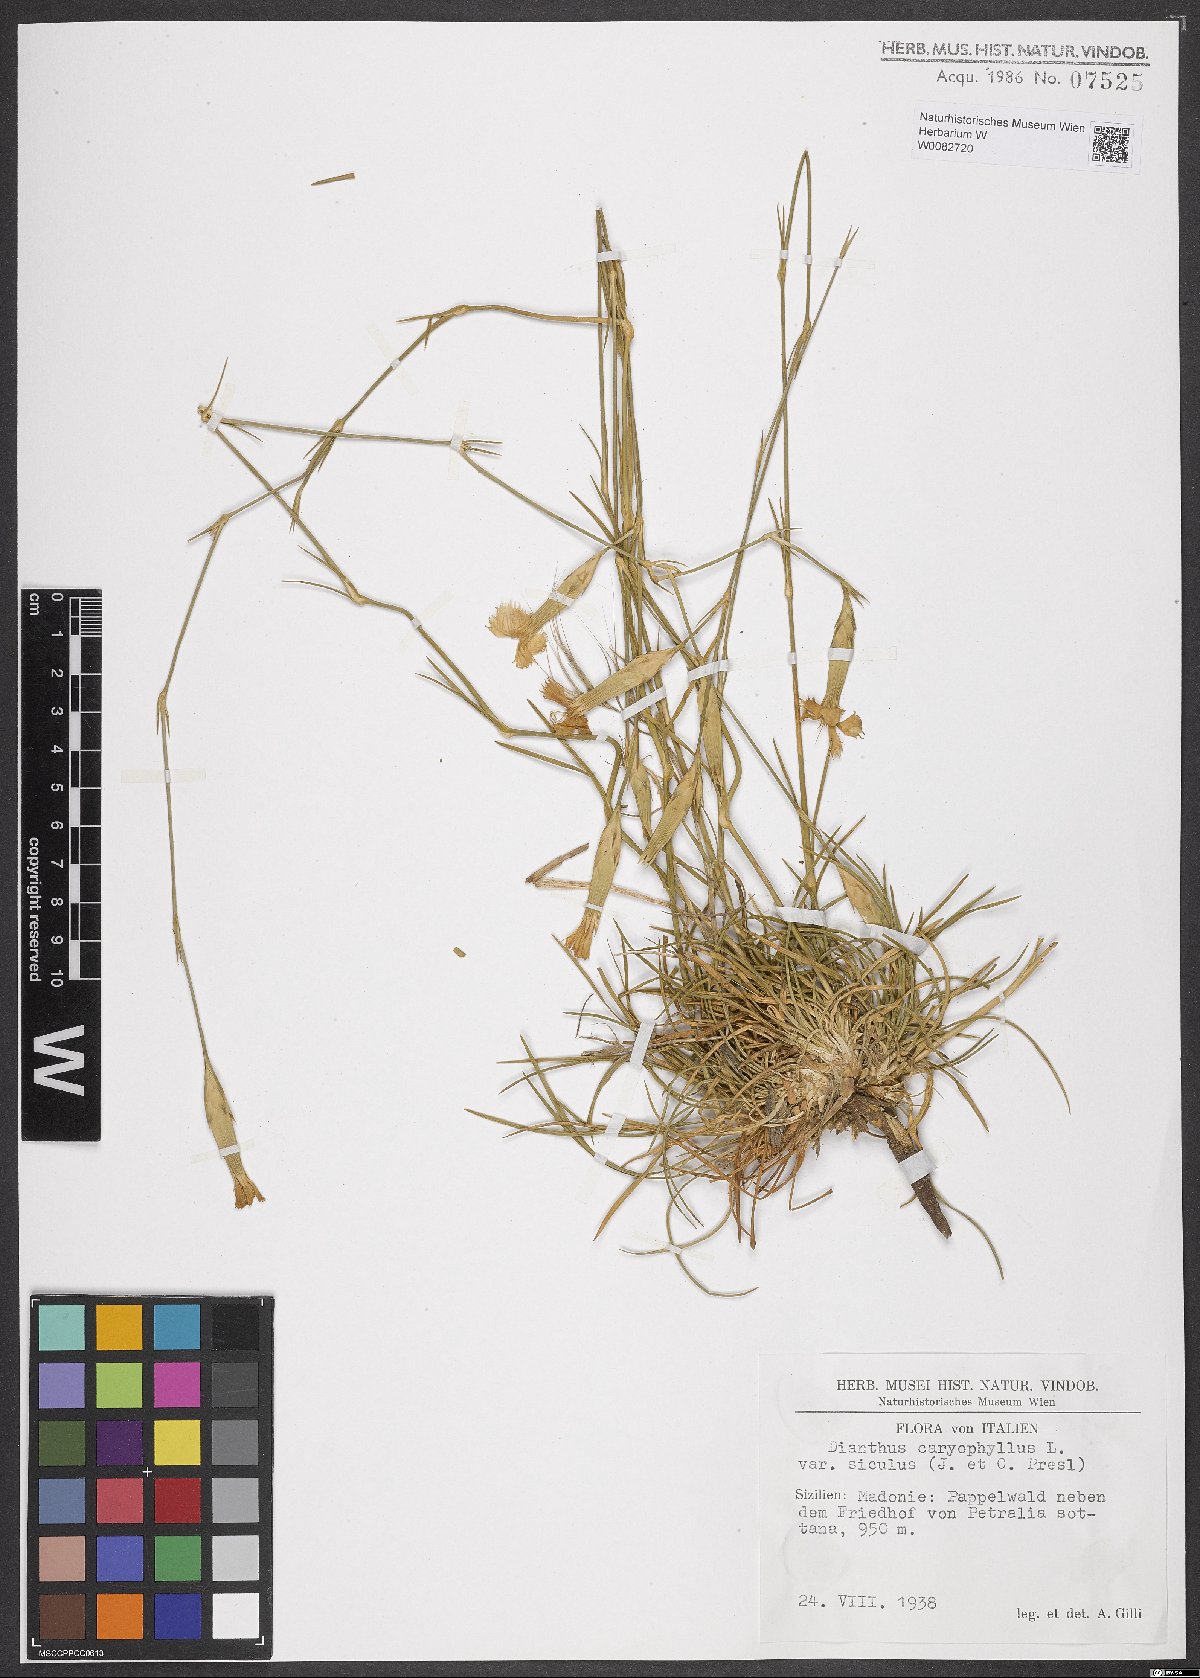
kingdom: Plantae
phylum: Tracheophyta
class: Magnoliopsida
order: Caryophyllales
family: Caryophyllaceae
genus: Dianthus
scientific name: Dianthus siculus
